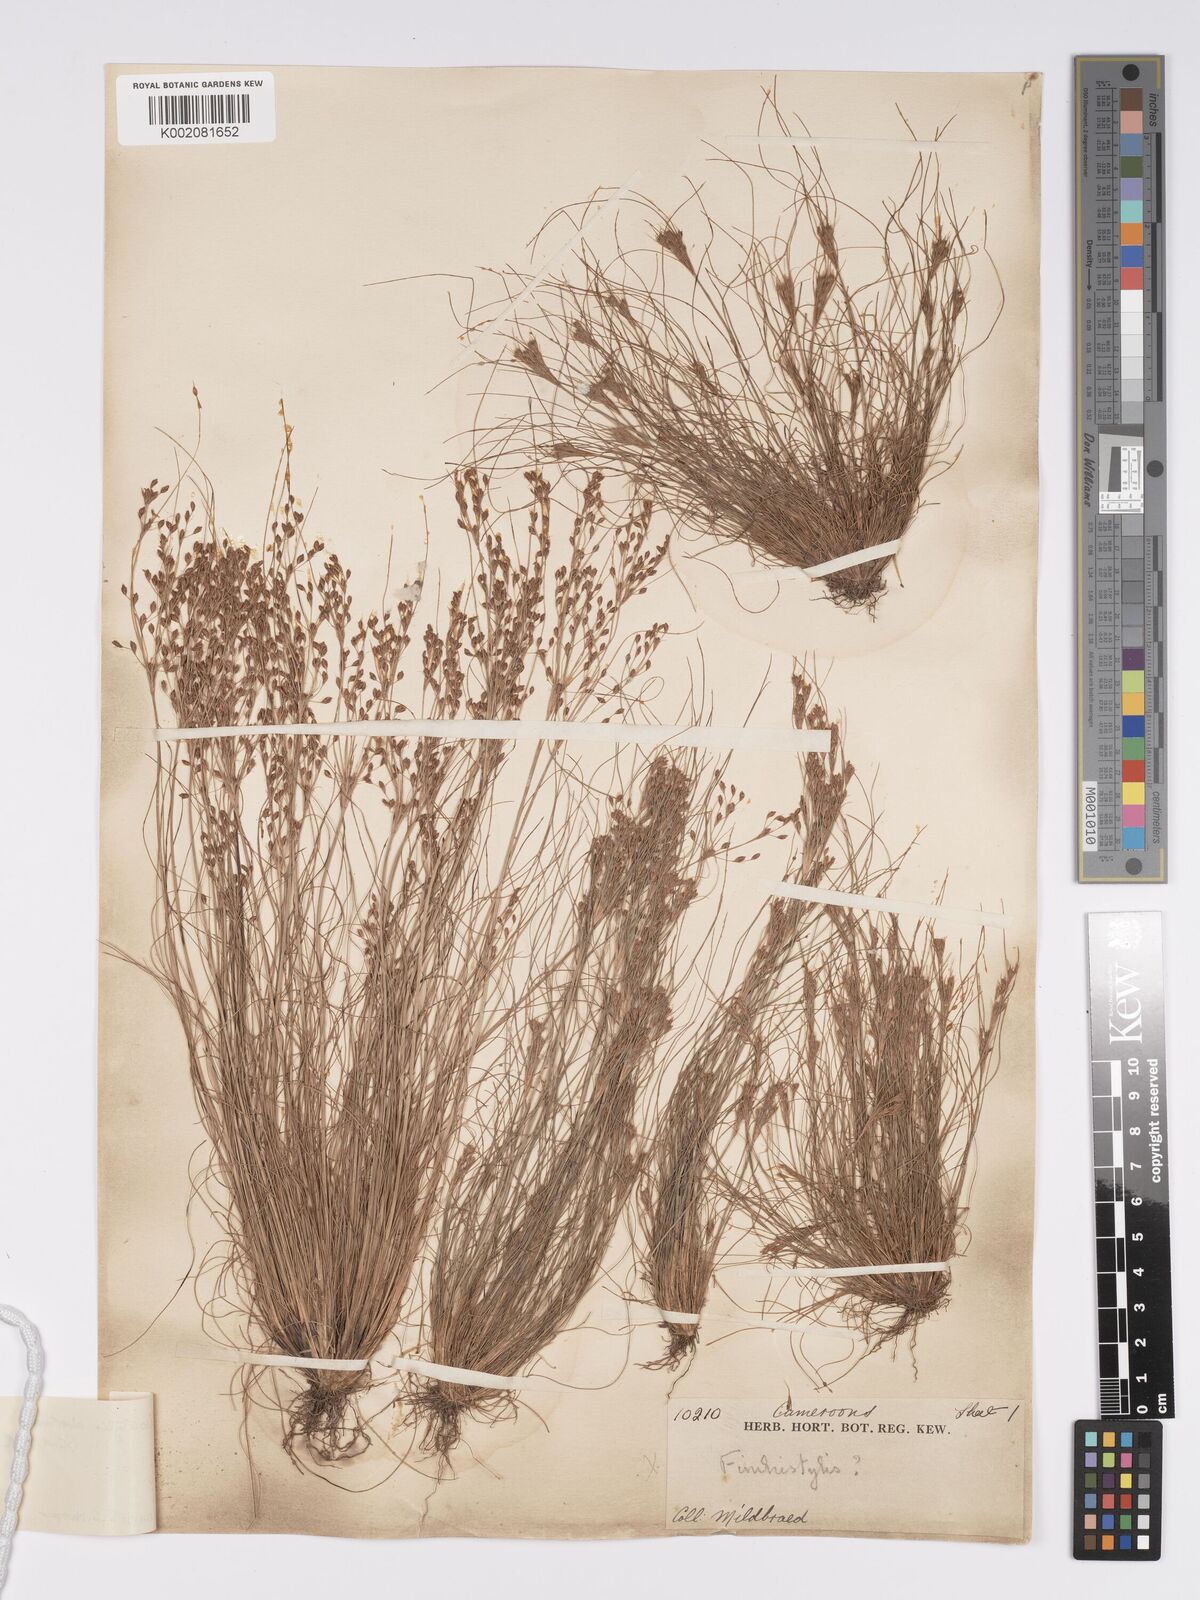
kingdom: Plantae
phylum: Tracheophyta
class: Liliopsida
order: Poales
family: Cyperaceae
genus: Bulbostylis
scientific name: Bulbostylis abortiva
